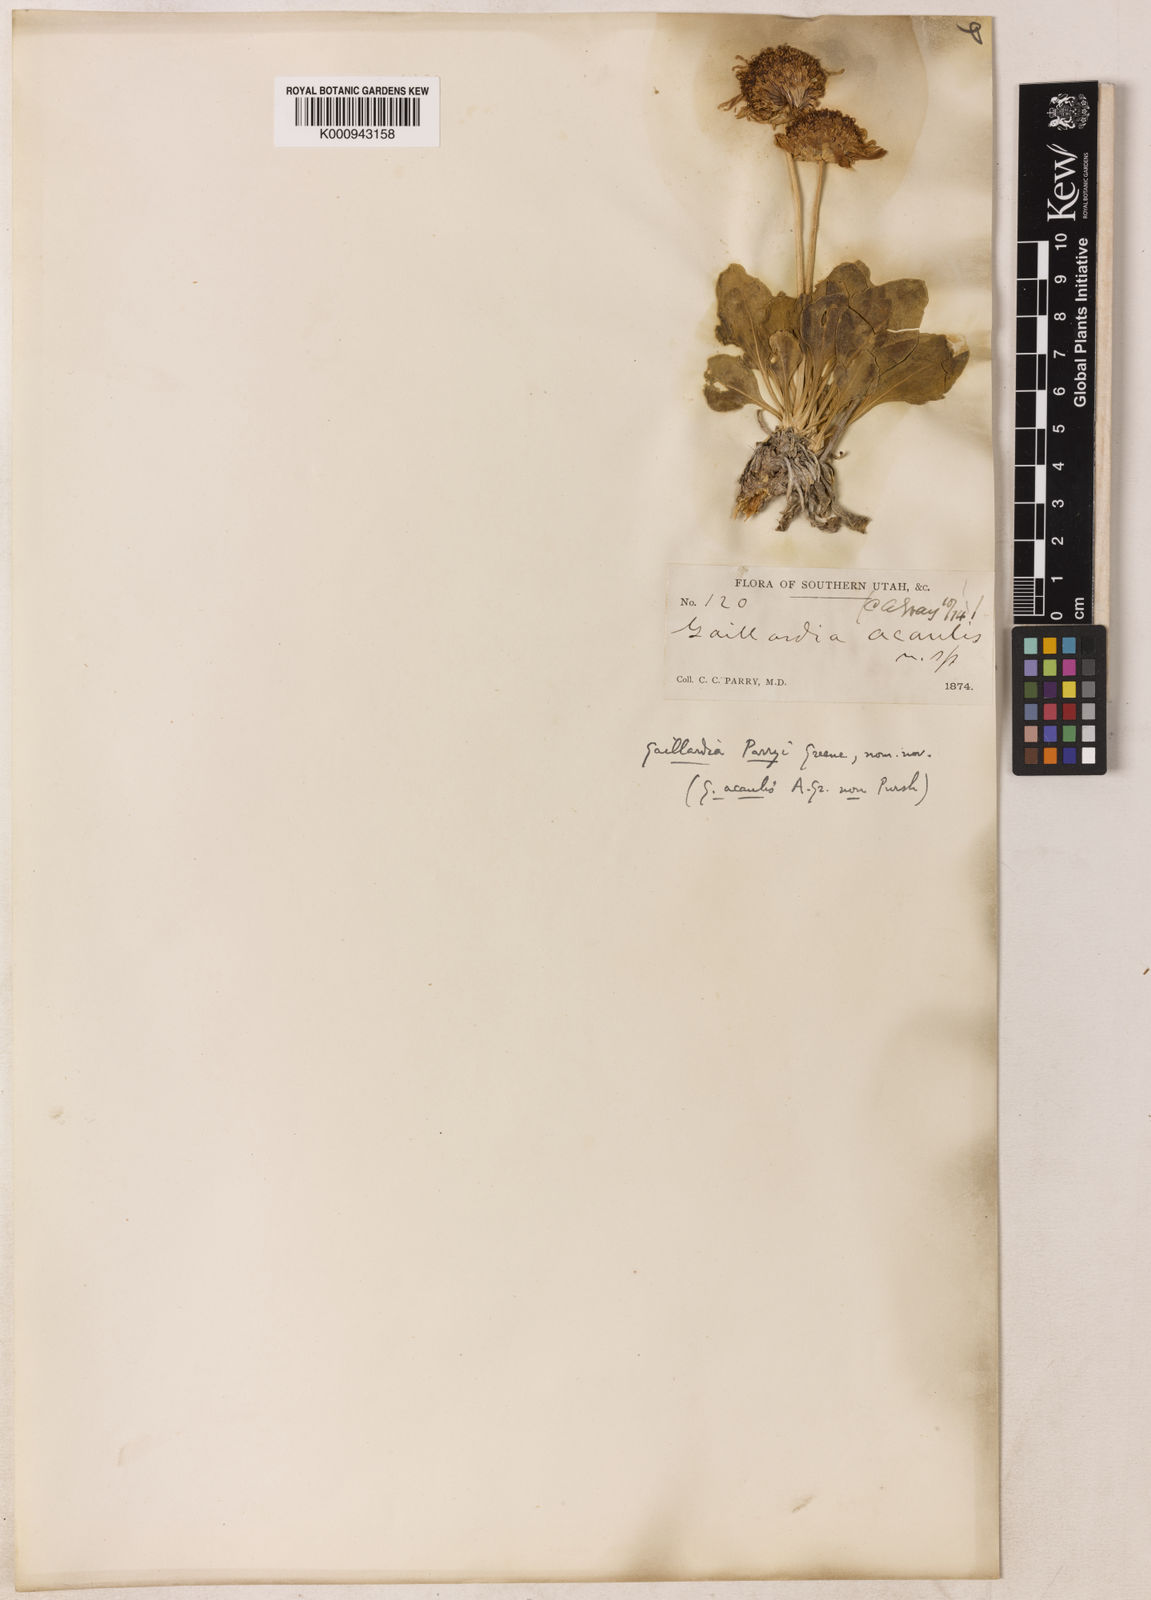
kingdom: Plantae
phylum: Tracheophyta
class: Magnoliopsida
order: Asterales
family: Asteraceae
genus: Gaillardia
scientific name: Gaillardia parryi
